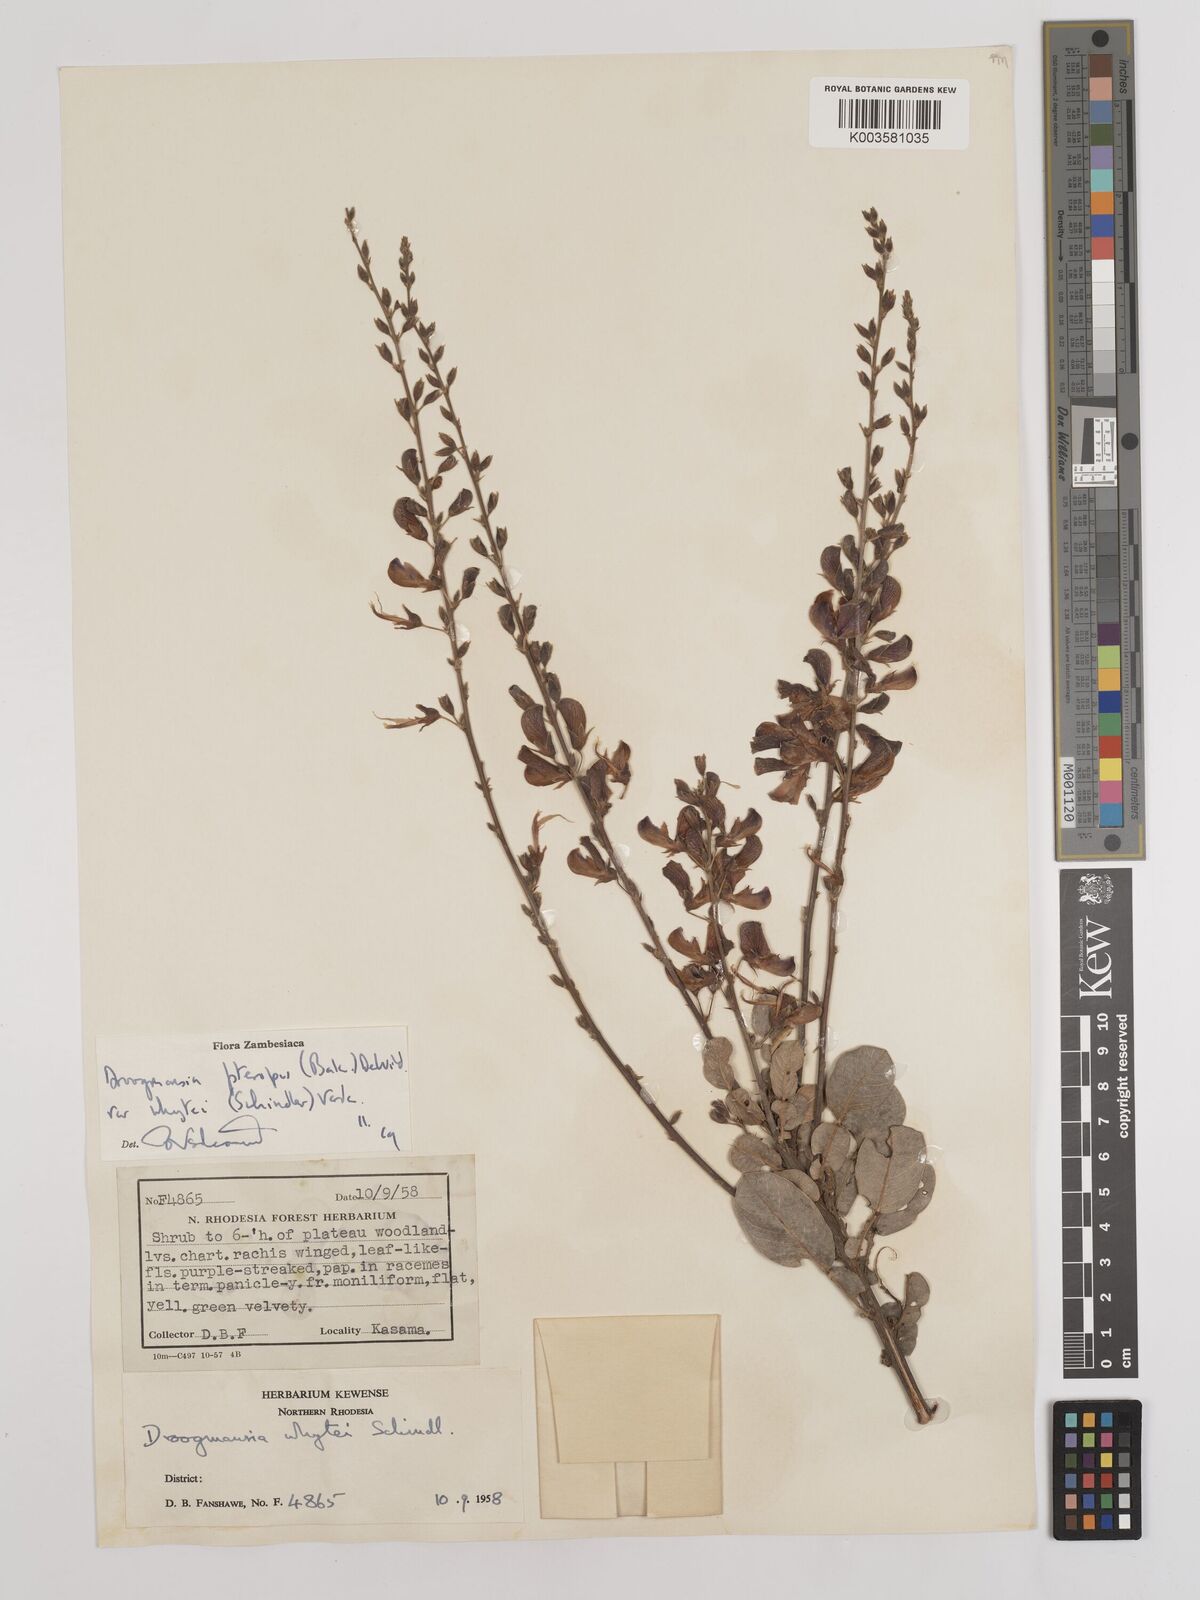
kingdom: Plantae
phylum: Tracheophyta
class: Magnoliopsida
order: Fabales
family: Fabaceae
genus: Droogmansia
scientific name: Droogmansia pteropus
